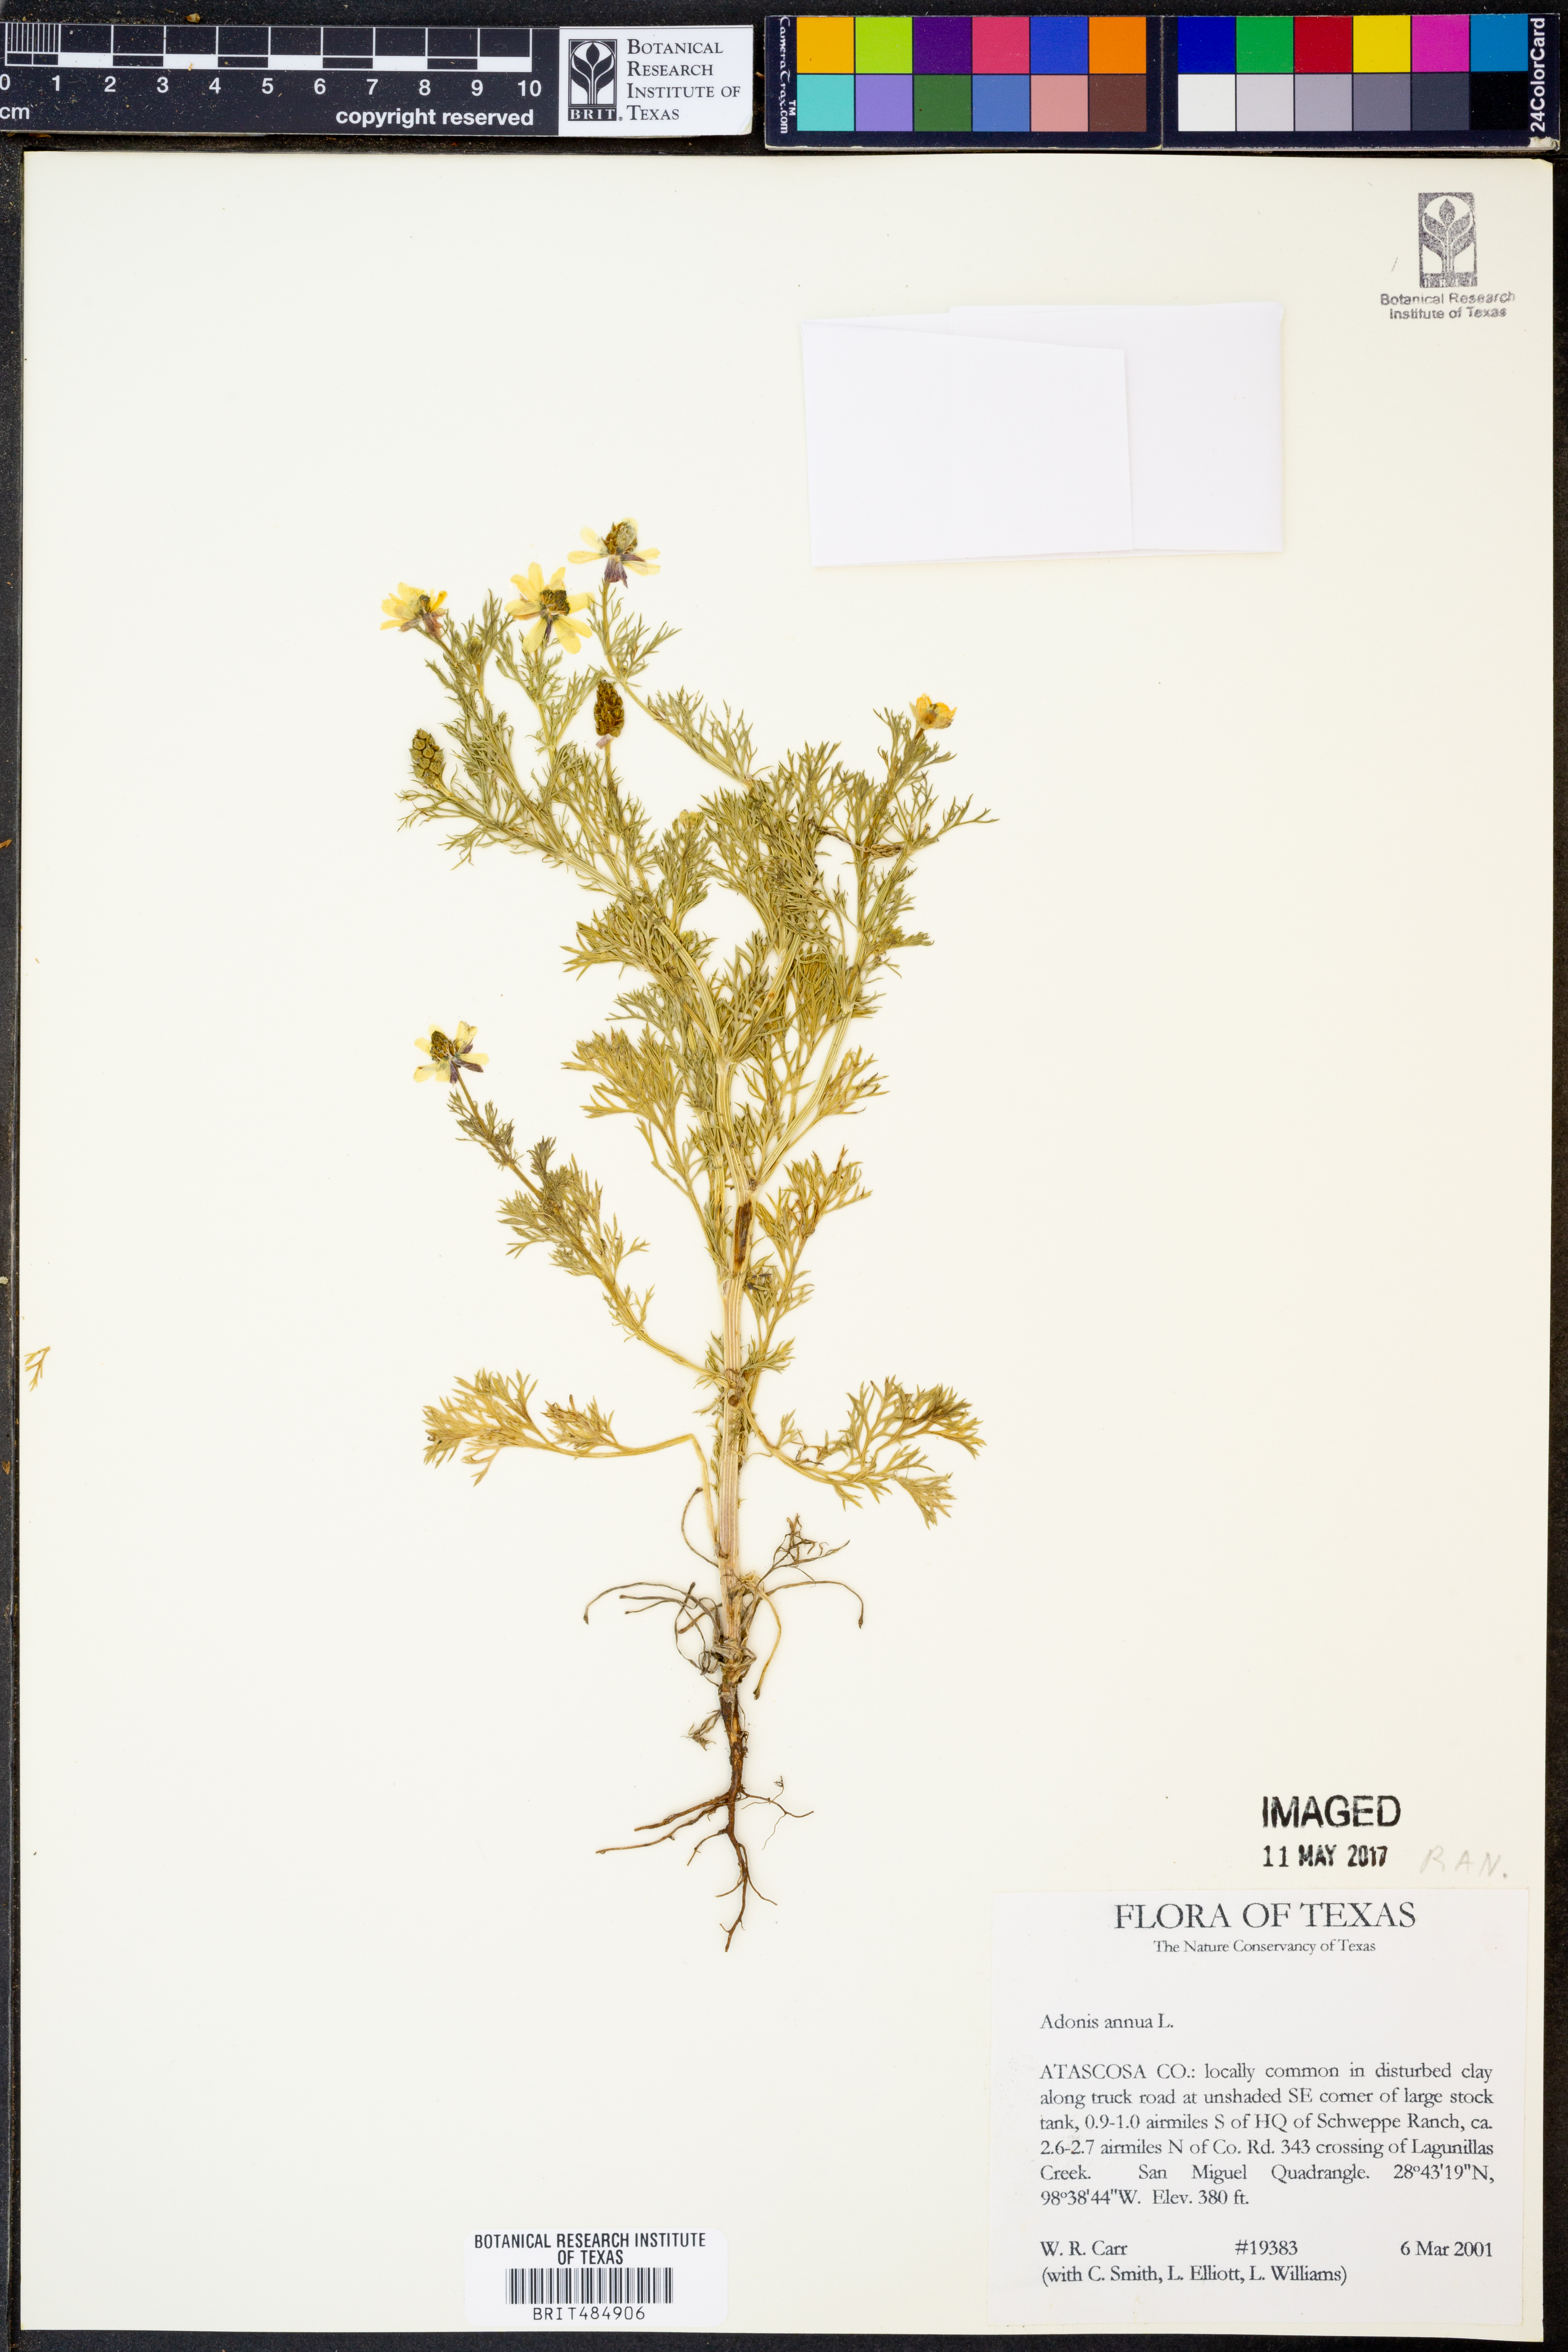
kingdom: Plantae
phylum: Tracheophyta
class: Magnoliopsida
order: Ranunculales
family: Ranunculaceae
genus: Adonis
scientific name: Adonis annua
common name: Pheasant's-eye
